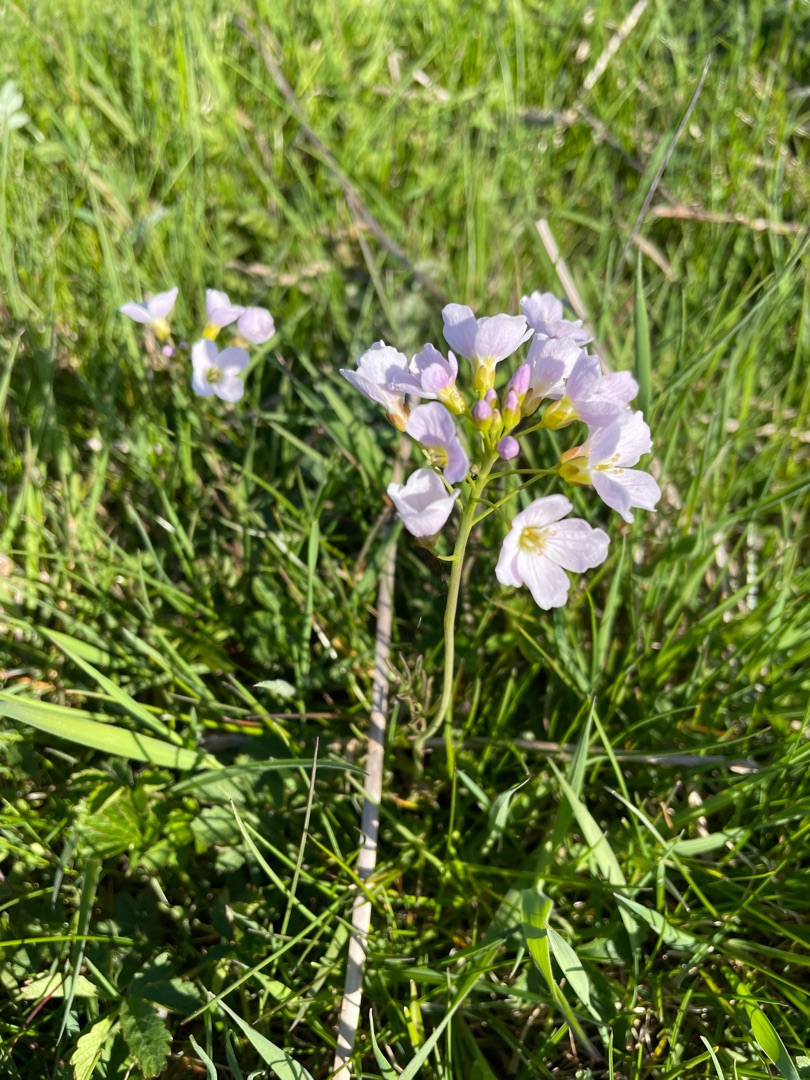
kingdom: Plantae
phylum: Tracheophyta
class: Magnoliopsida
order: Brassicales
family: Brassicaceae
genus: Cardamine
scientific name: Cardamine pratensis
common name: Engkarse
